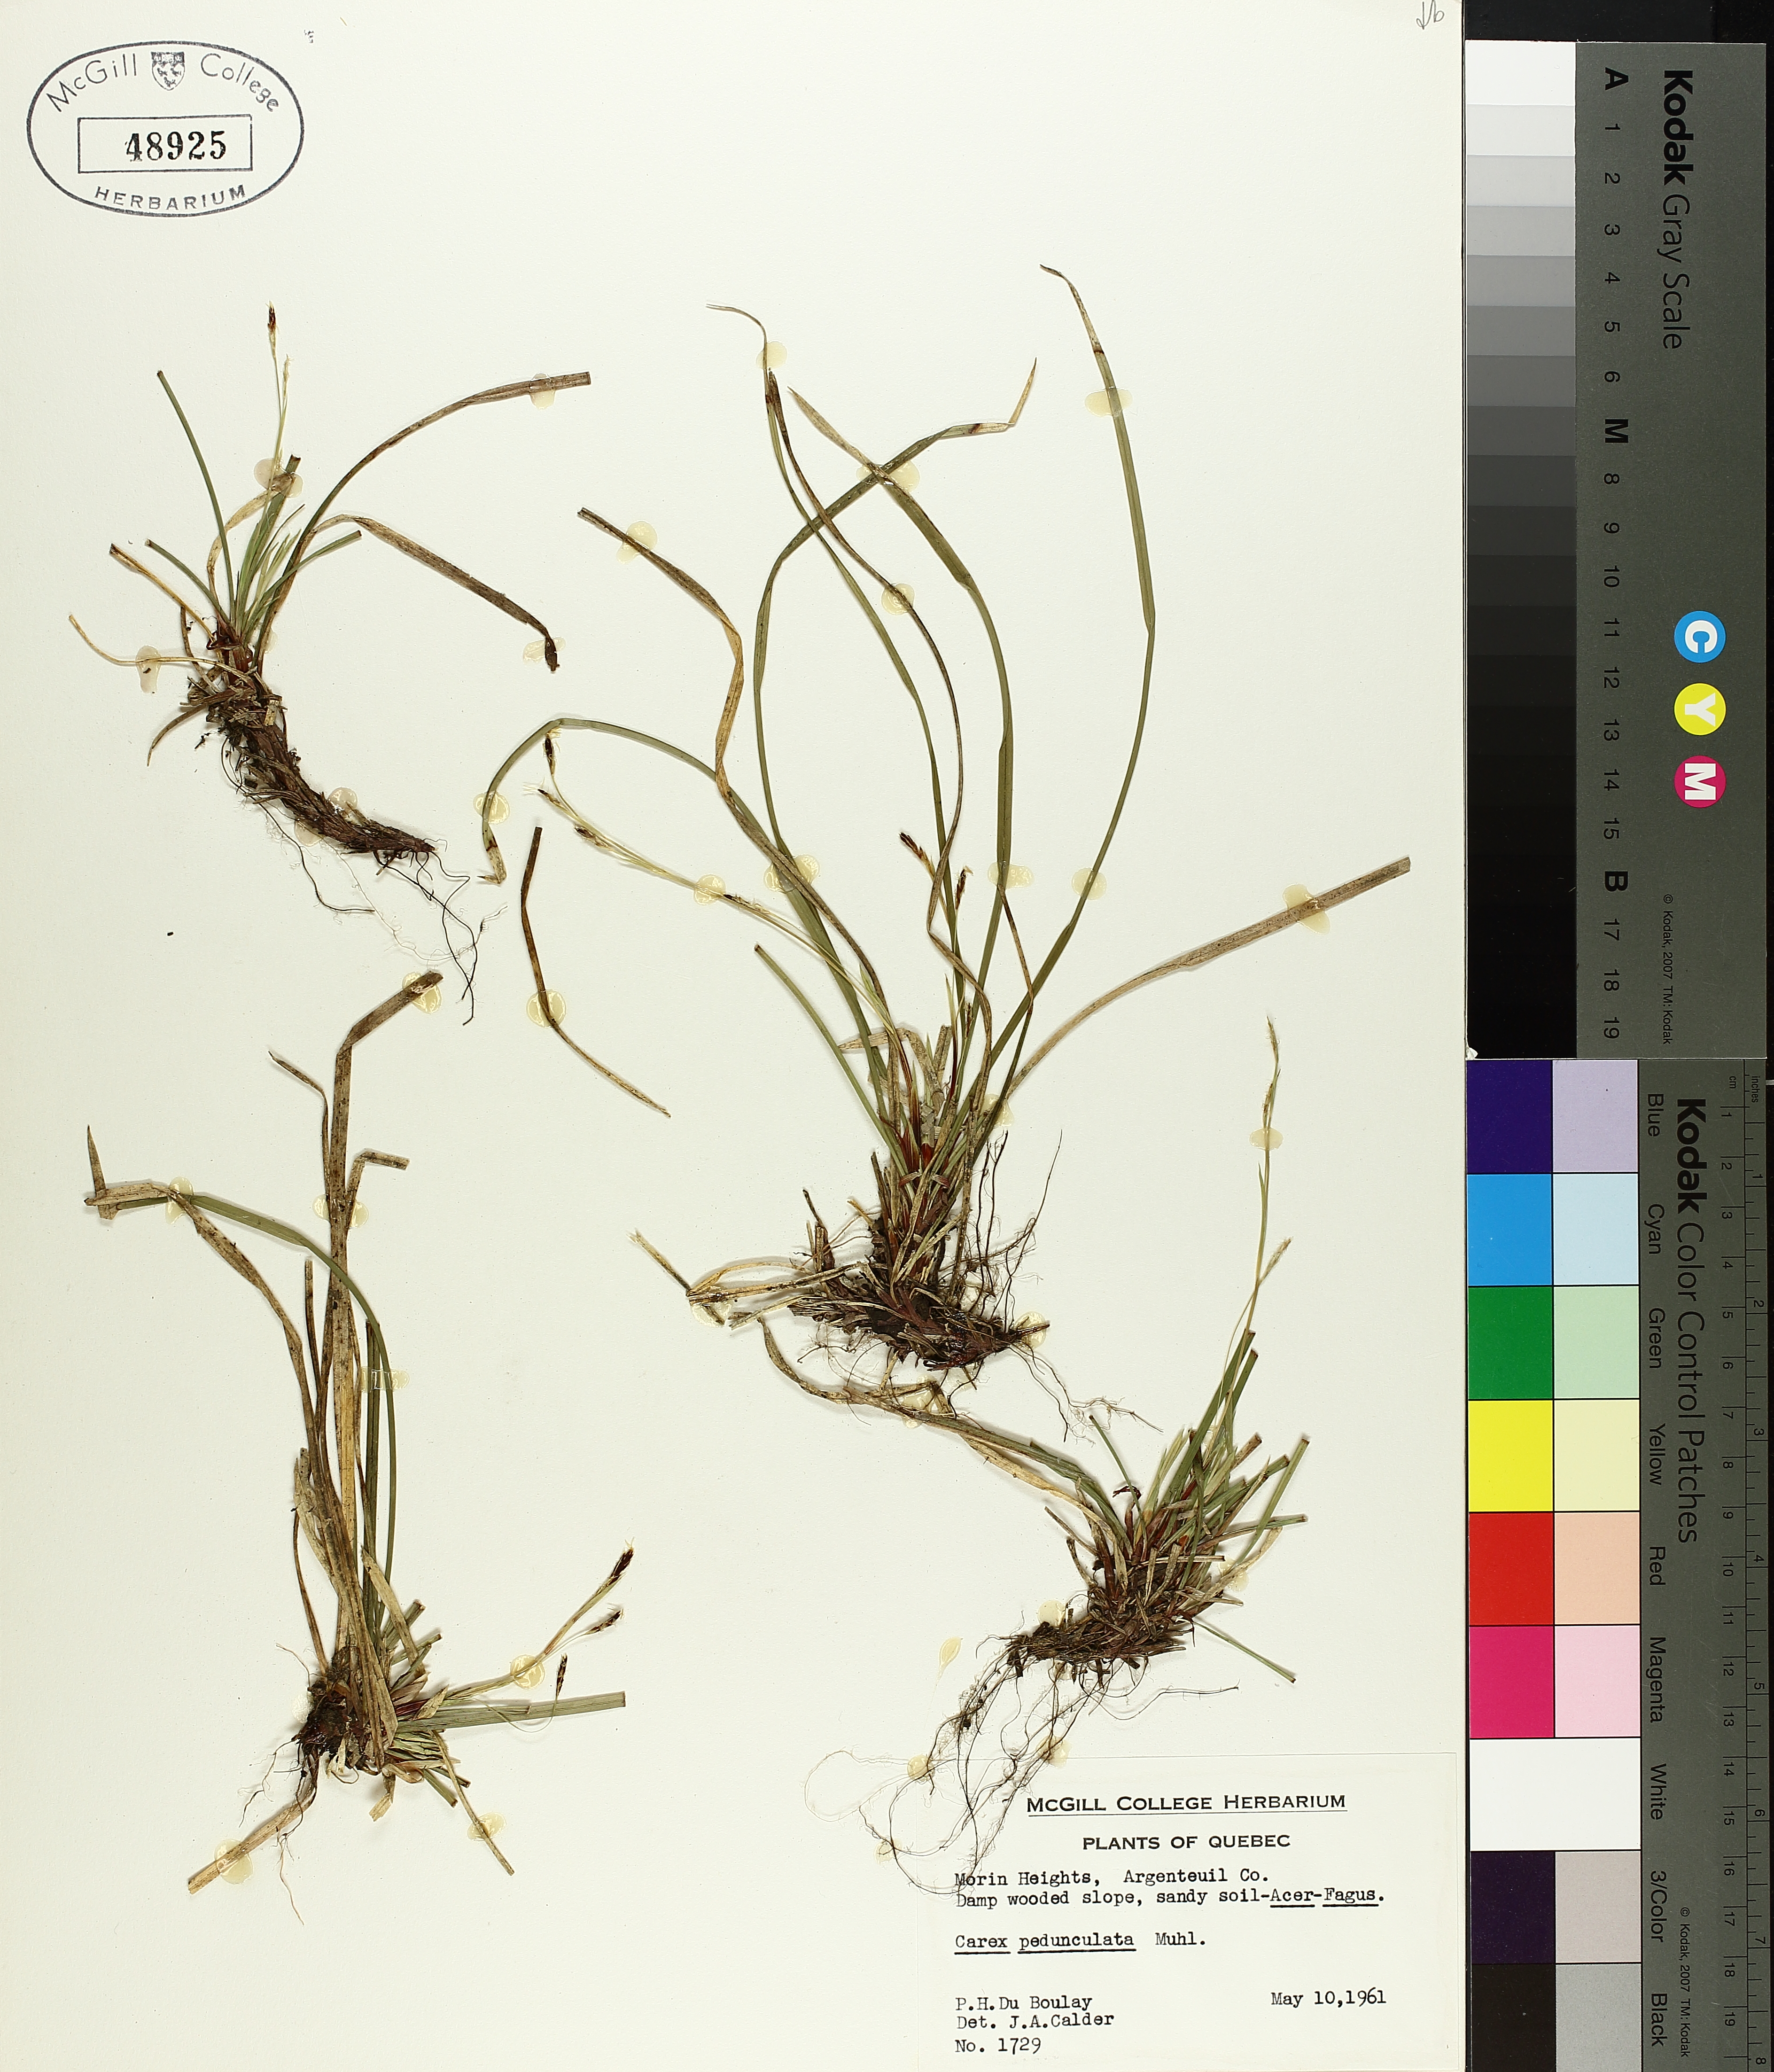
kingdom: Plantae
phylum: Tracheophyta
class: Liliopsida
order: Poales
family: Cyperaceae
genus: Carex
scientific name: Carex pedunculata
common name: Pedunculate sedge
